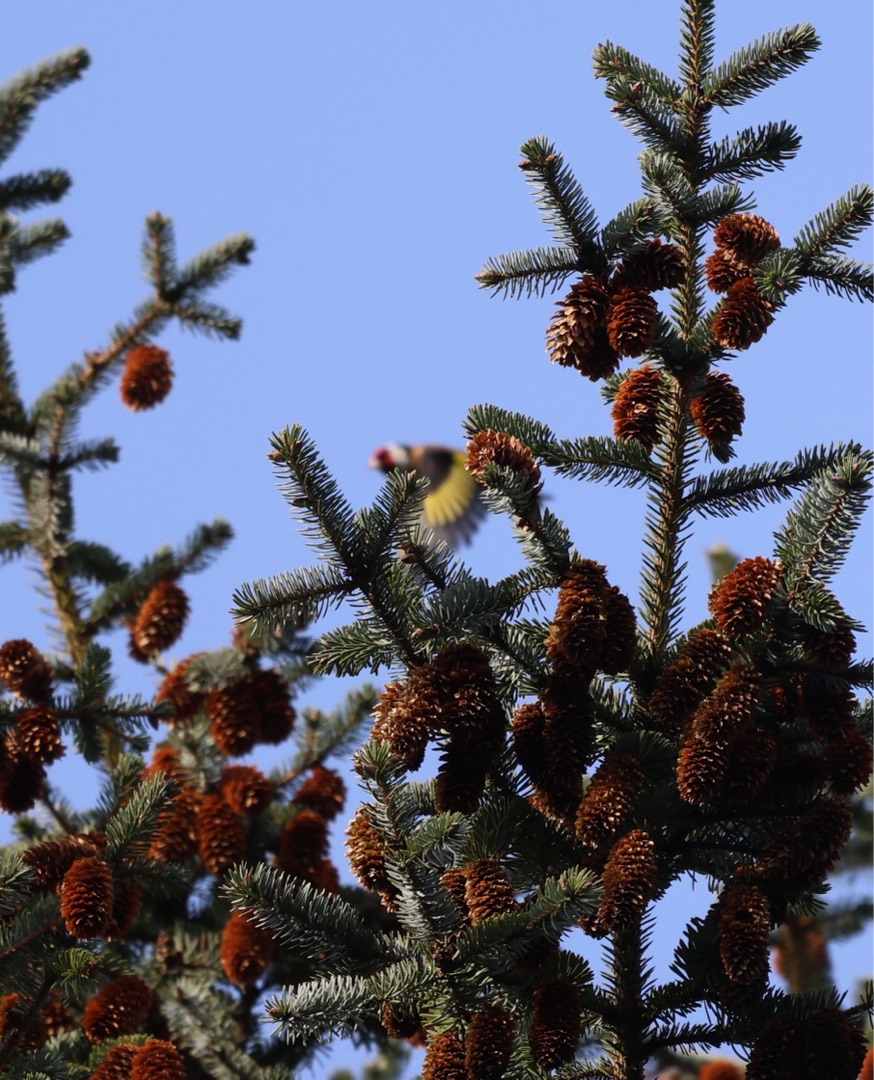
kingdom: Animalia
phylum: Chordata
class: Aves
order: Passeriformes
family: Fringillidae
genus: Carduelis
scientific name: Carduelis carduelis
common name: Stillits
